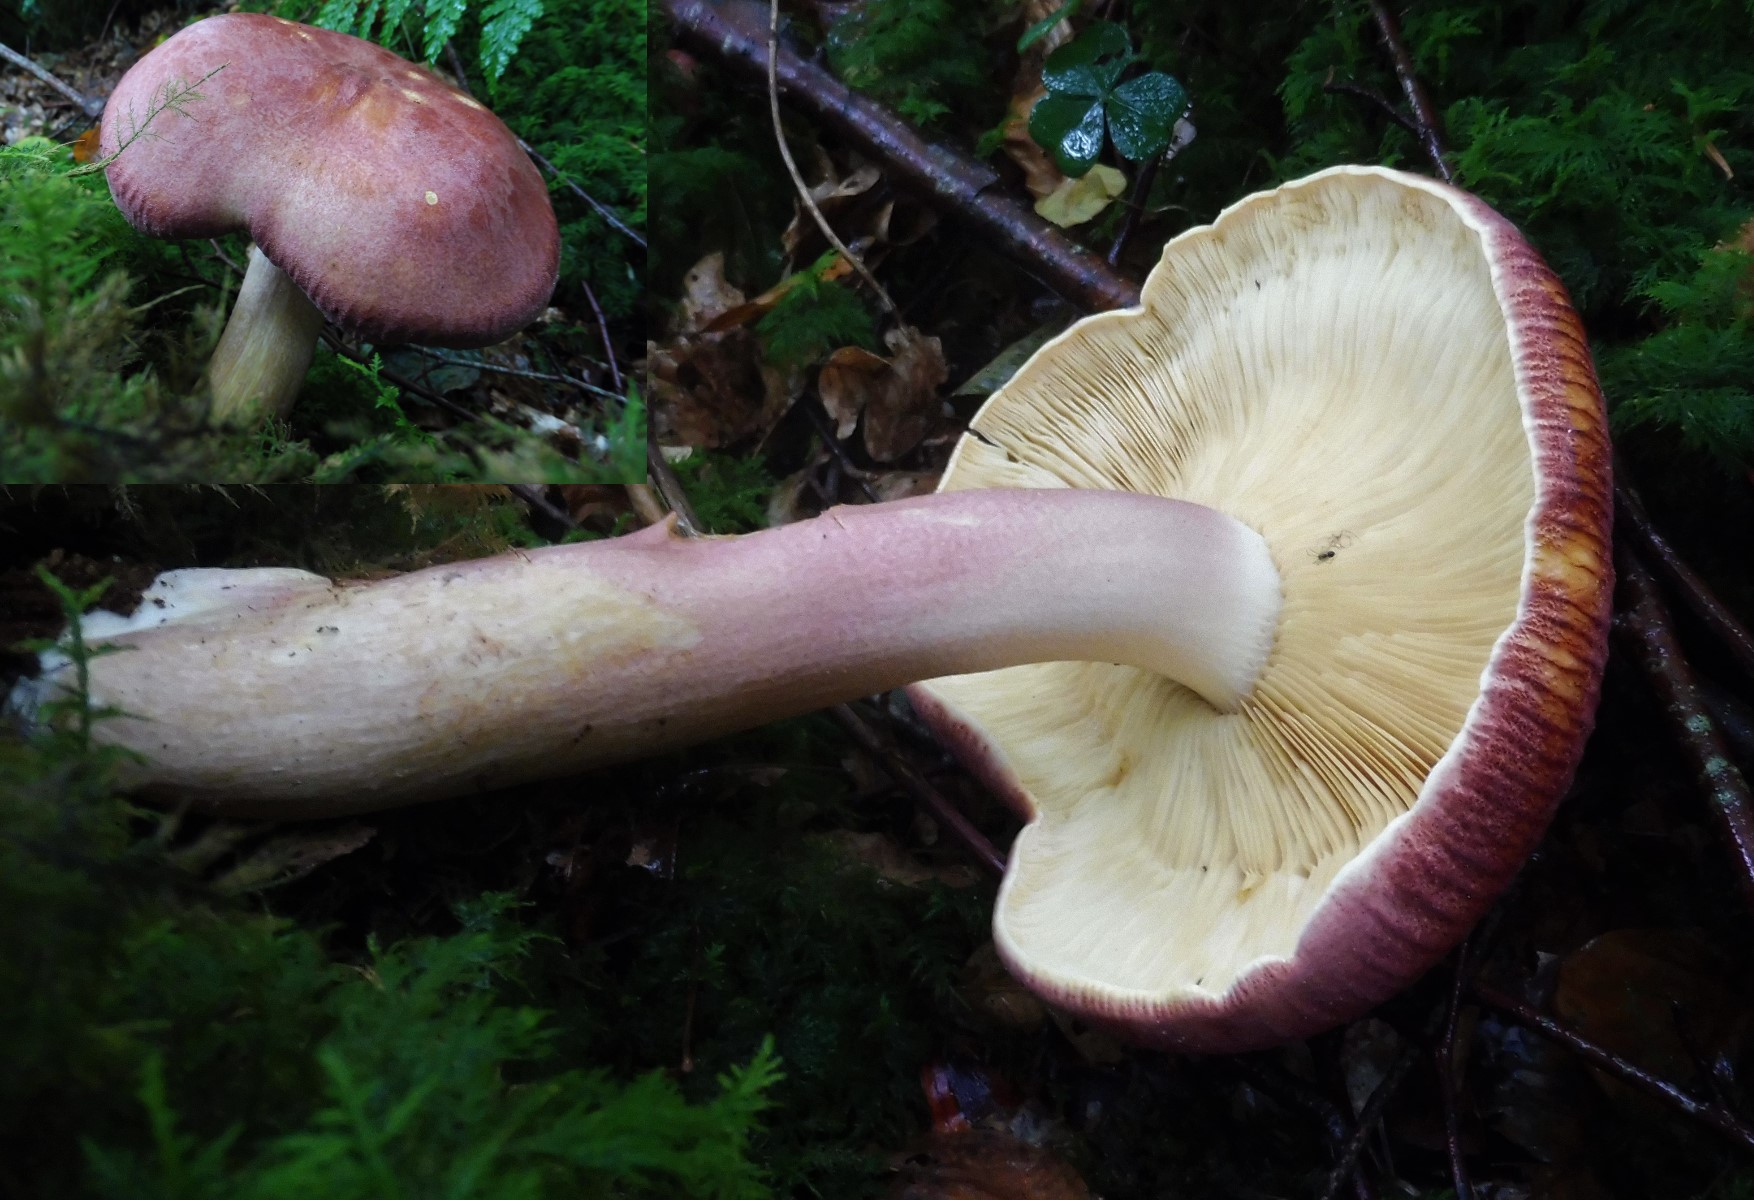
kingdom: Fungi
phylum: Basidiomycota
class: Agaricomycetes
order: Agaricales
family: Tricholomataceae
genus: Tricholomopsis
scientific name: Tricholomopsis rutilans
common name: purpur-væbnerhat
